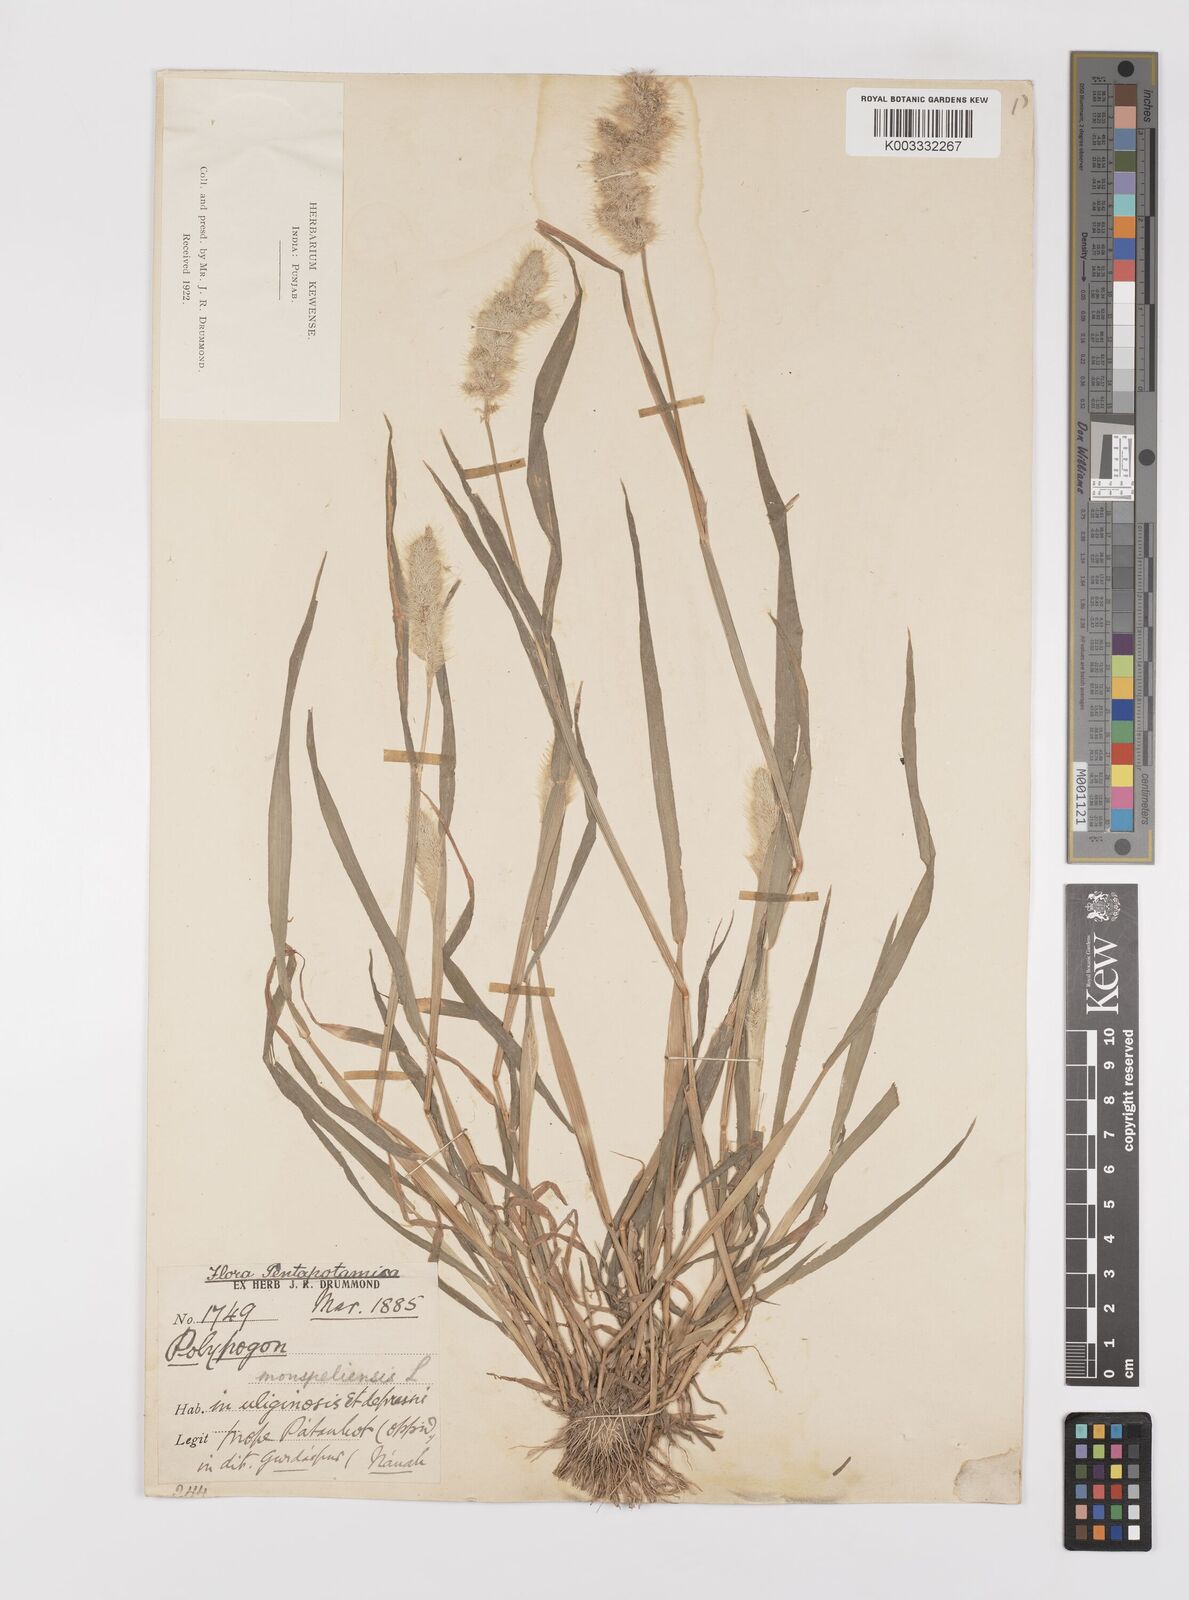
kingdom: Plantae
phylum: Tracheophyta
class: Liliopsida
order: Poales
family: Poaceae
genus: Polypogon
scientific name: Polypogon monspeliensis
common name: Annual rabbitsfoot grass
